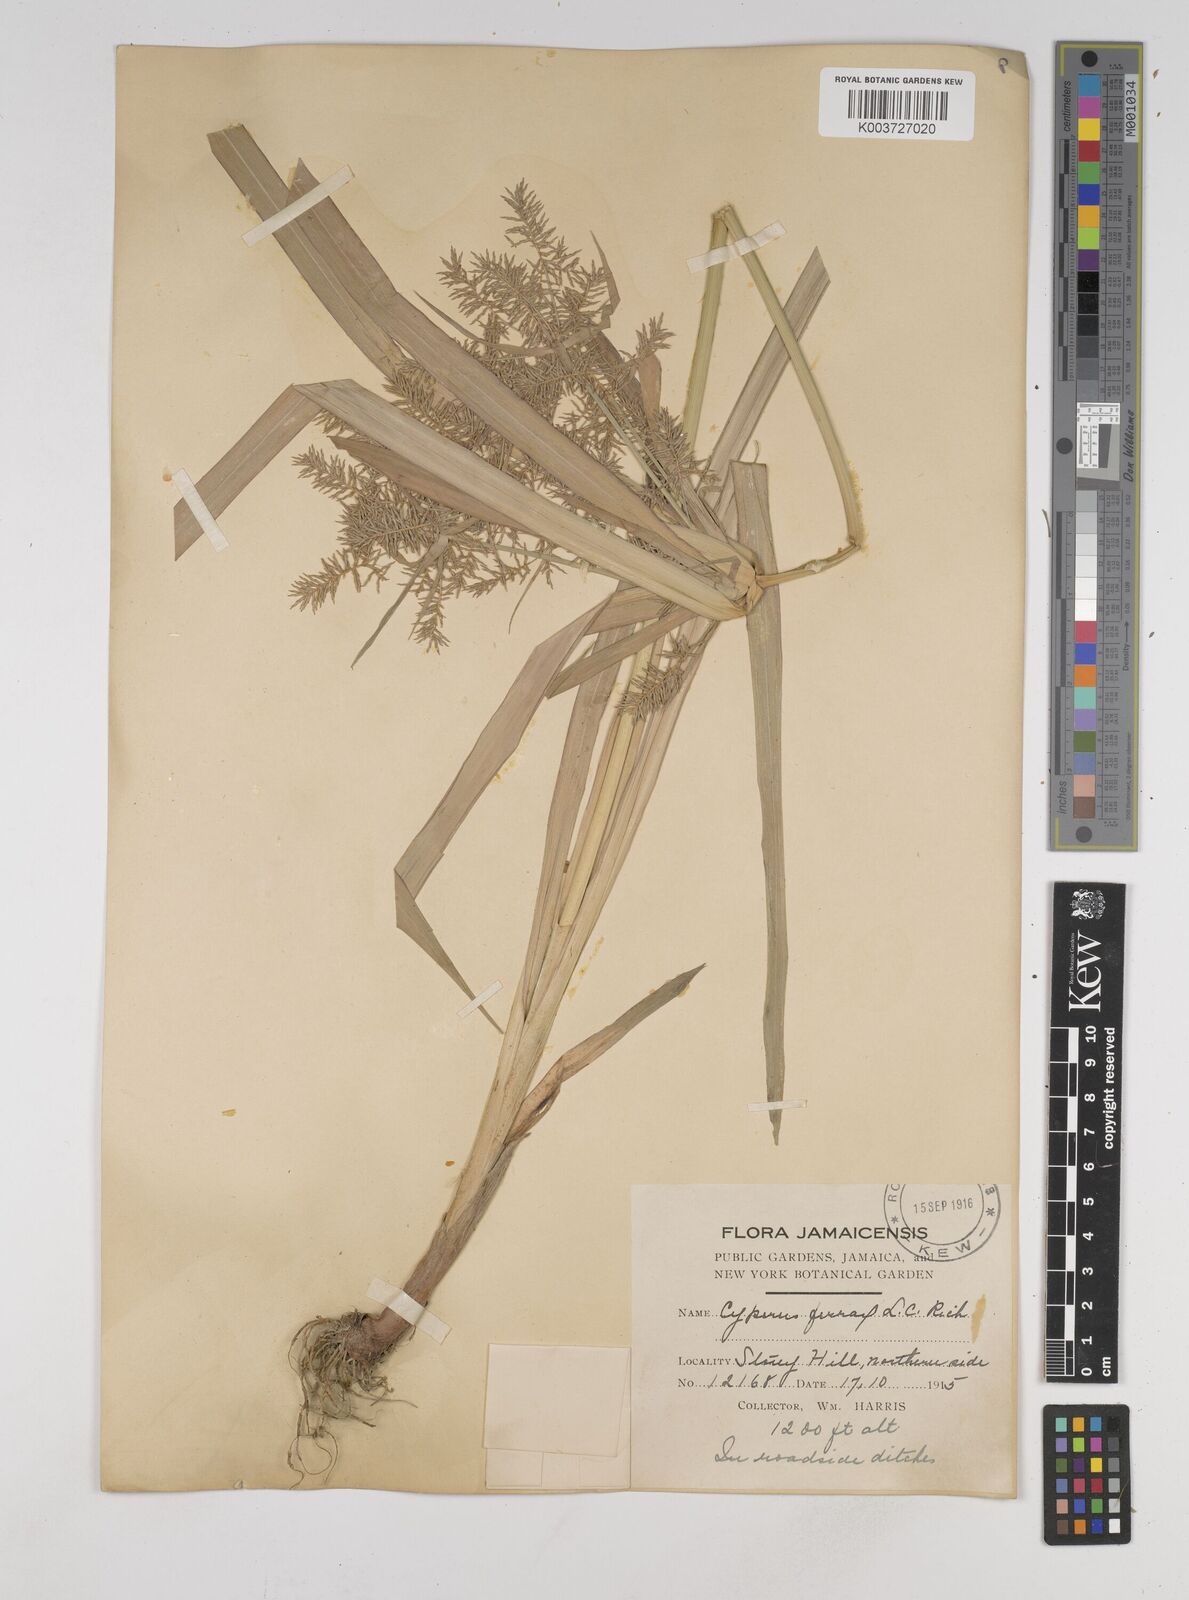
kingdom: Plantae
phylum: Tracheophyta
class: Liliopsida
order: Poales
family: Cyperaceae
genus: Cyperus
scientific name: Cyperus odoratus
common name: Fragrant flatsedge
